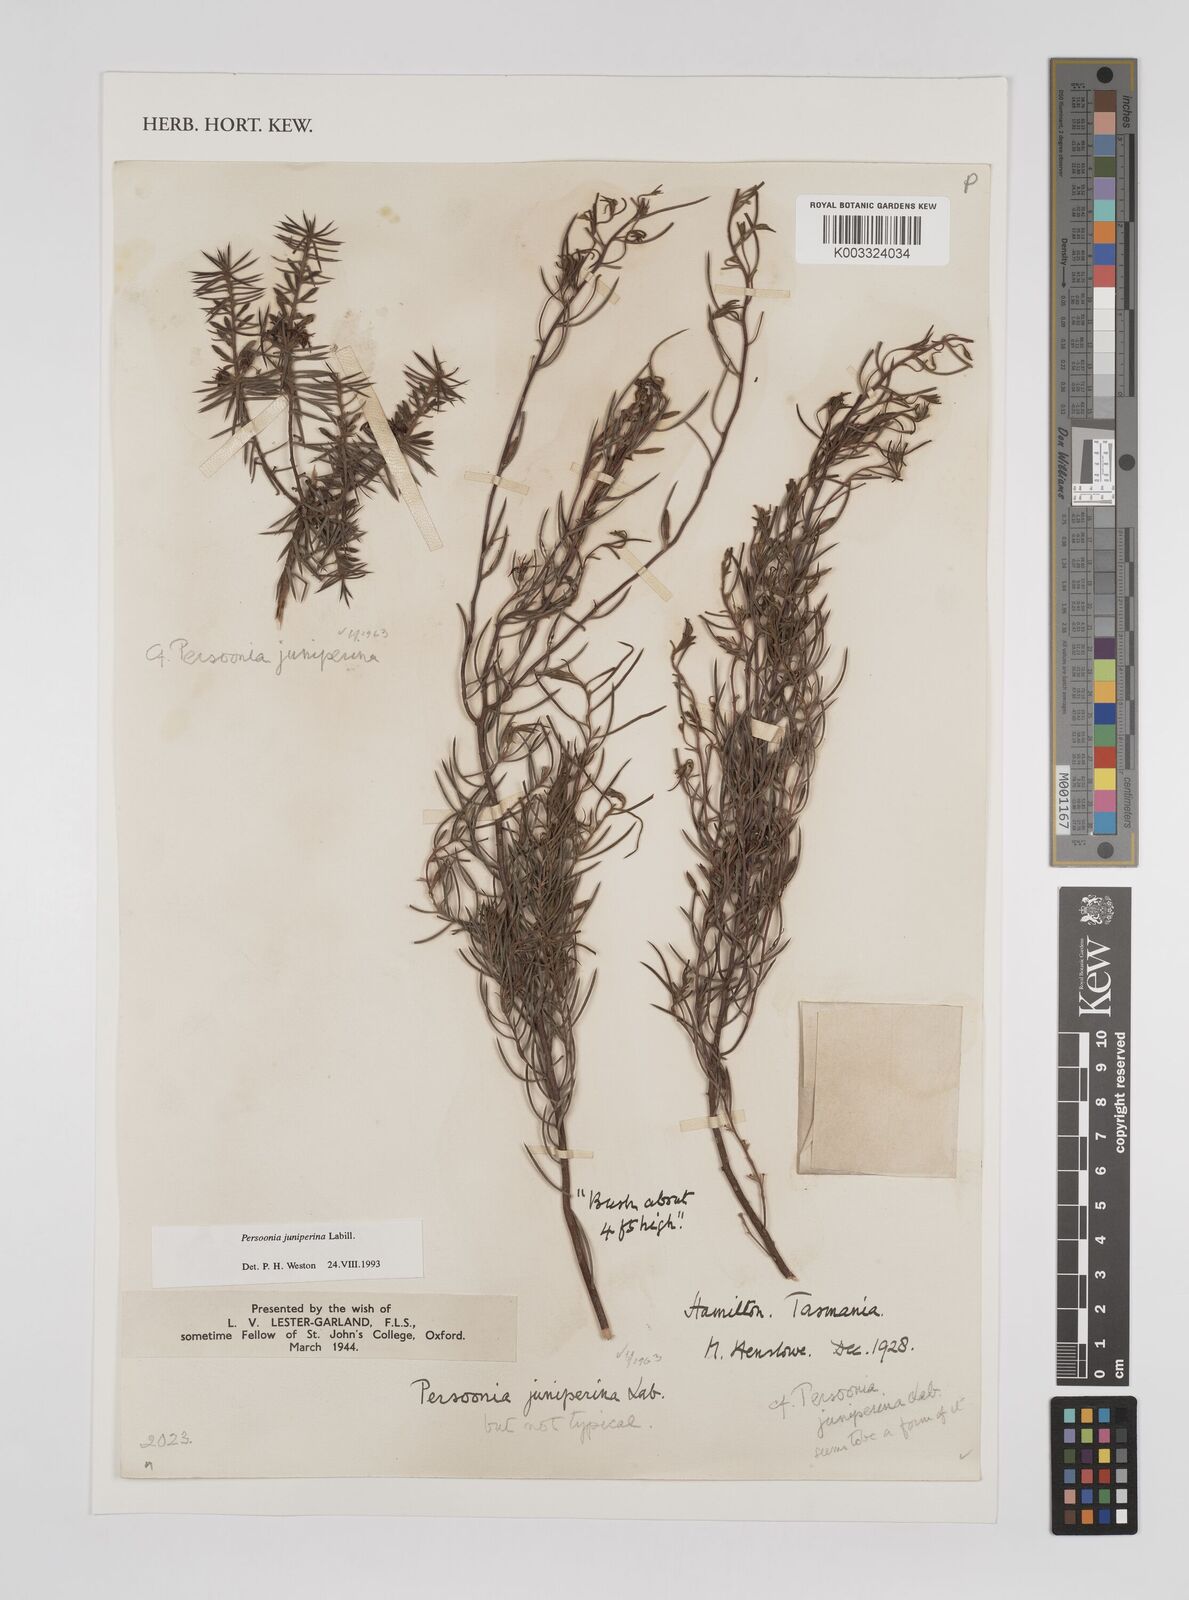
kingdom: Plantae
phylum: Tracheophyta
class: Magnoliopsida
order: Proteales
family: Proteaceae
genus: Persoonia
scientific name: Persoonia juniperina
